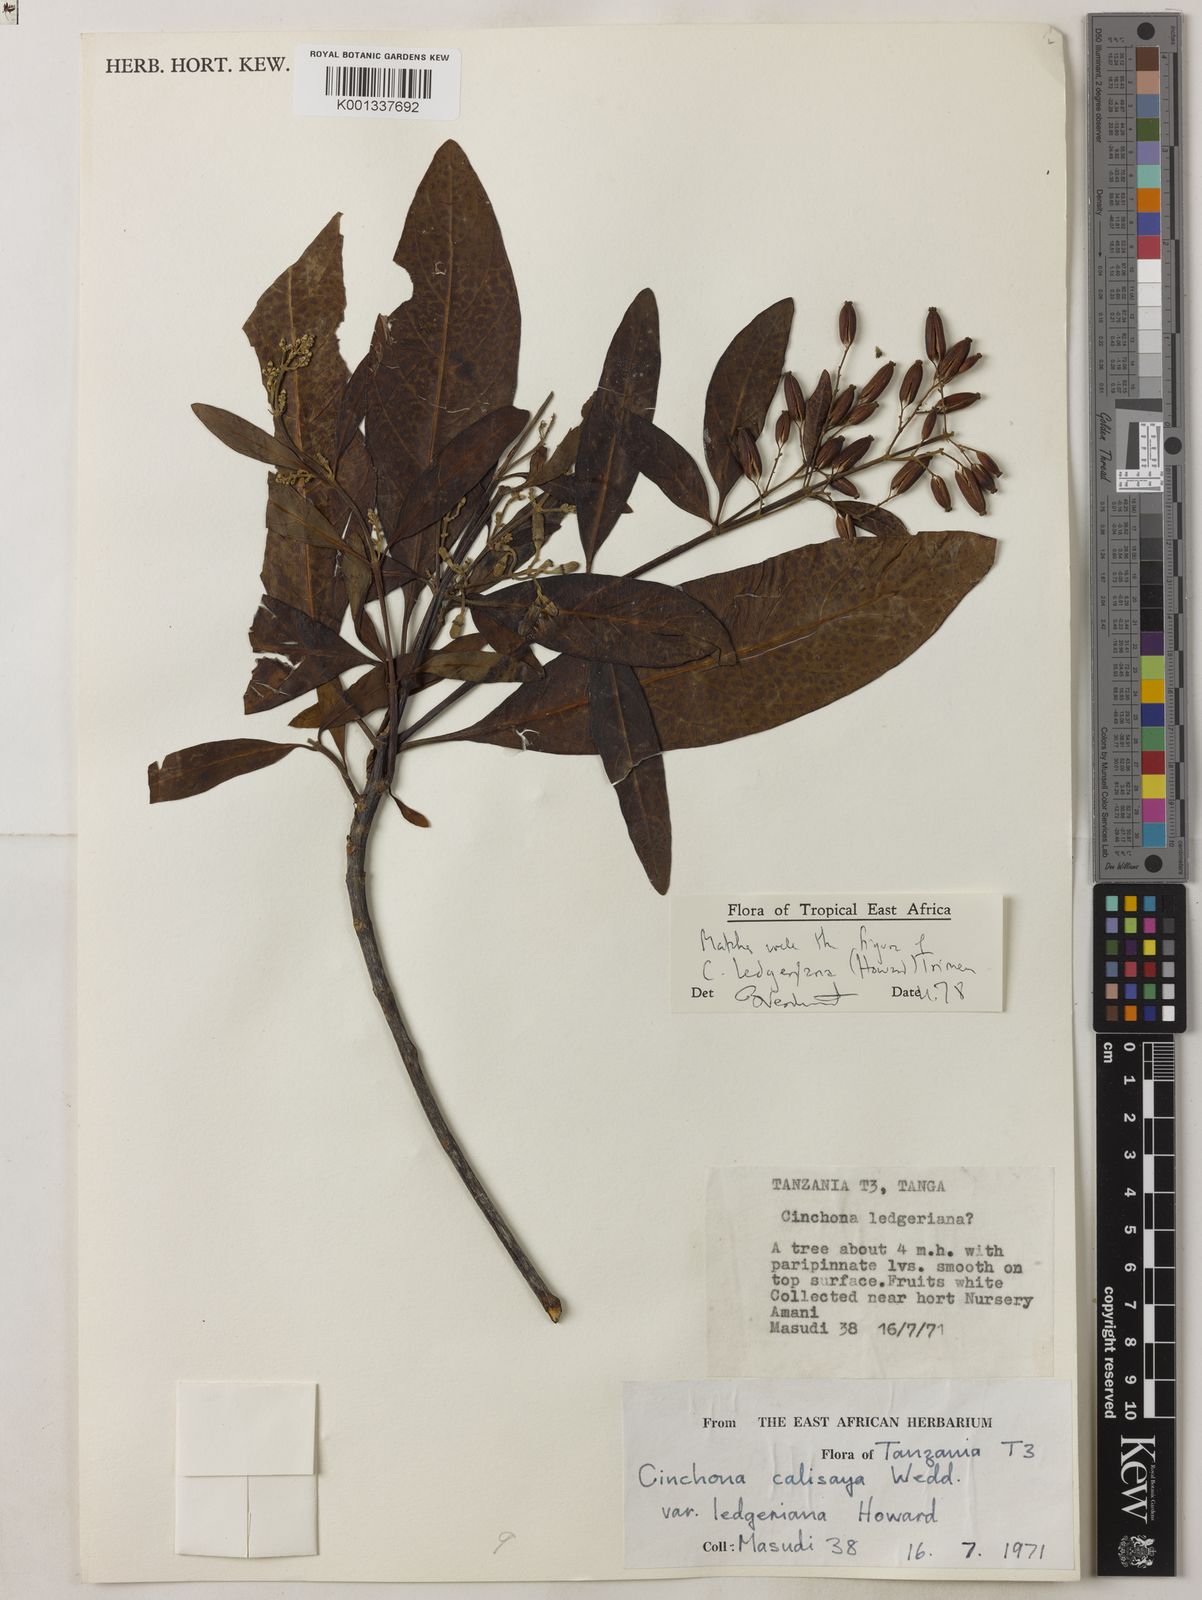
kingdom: Plantae
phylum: Tracheophyta
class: Magnoliopsida
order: Gentianales
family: Rubiaceae
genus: Cinchona
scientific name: Cinchona calisaya
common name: Ledgerbark
